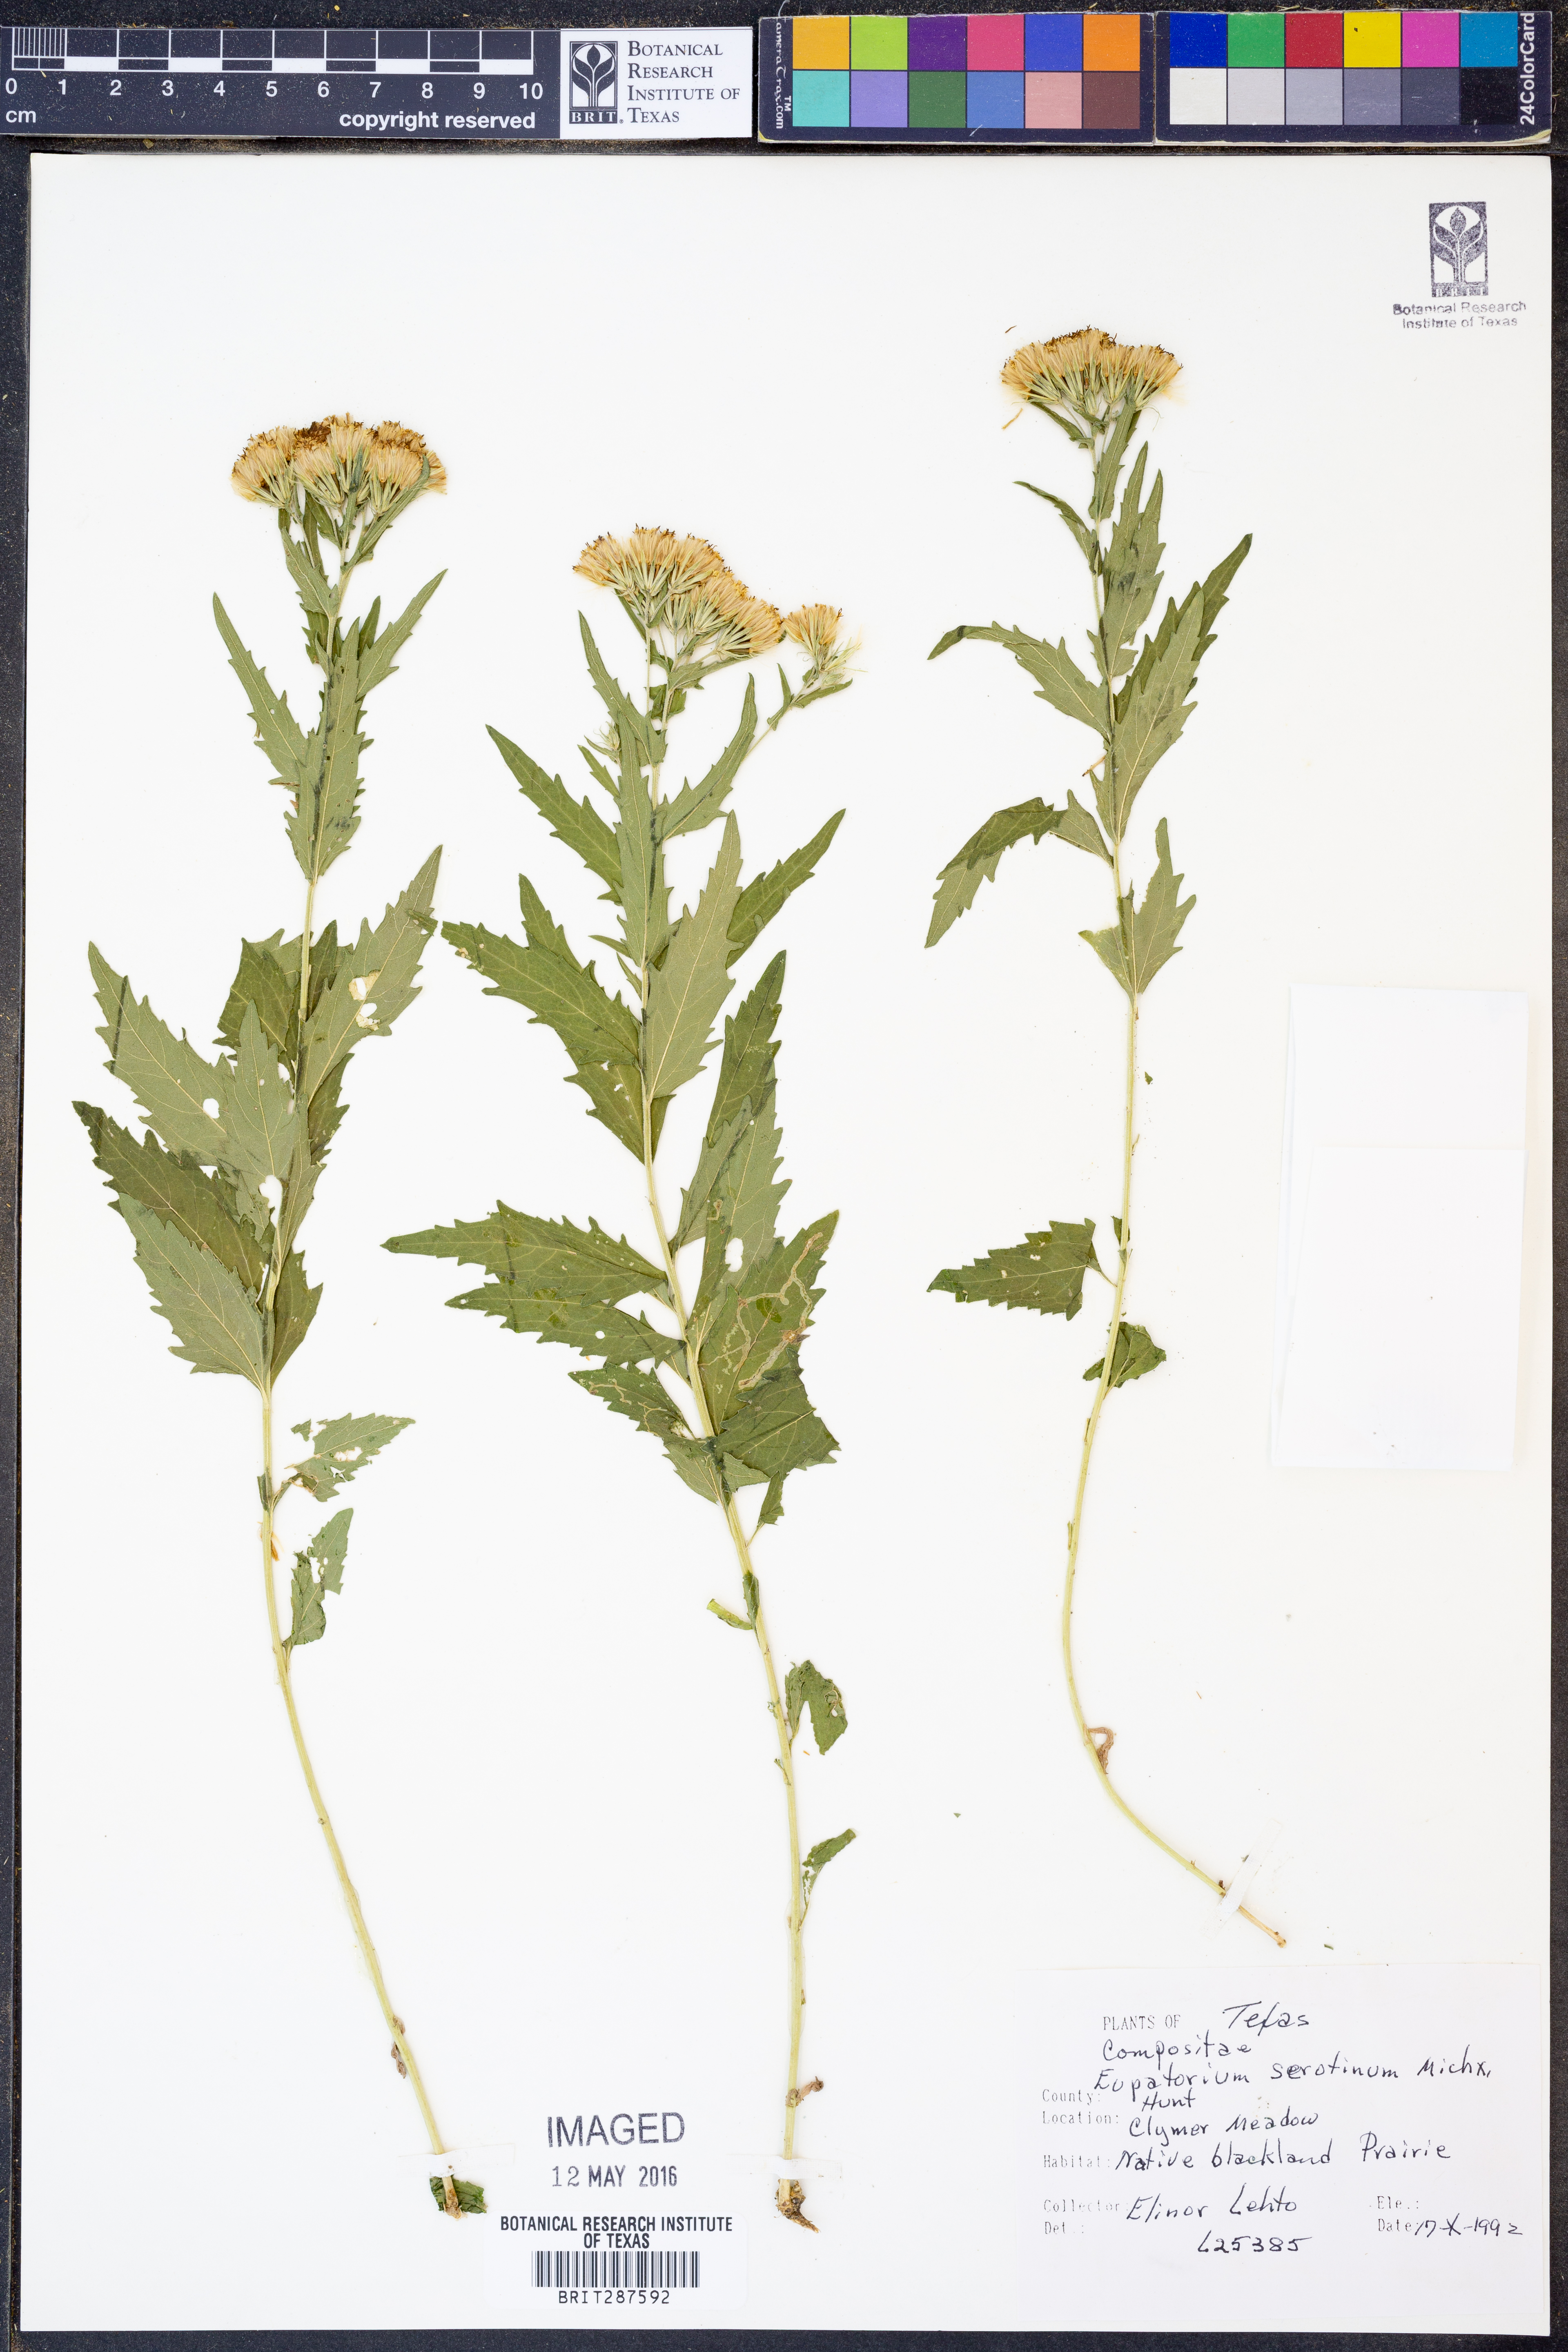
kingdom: Plantae
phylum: Tracheophyta
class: Magnoliopsida
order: Asterales
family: Asteraceae
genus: Eupatorium
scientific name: Eupatorium serotinum
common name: Late boneset
